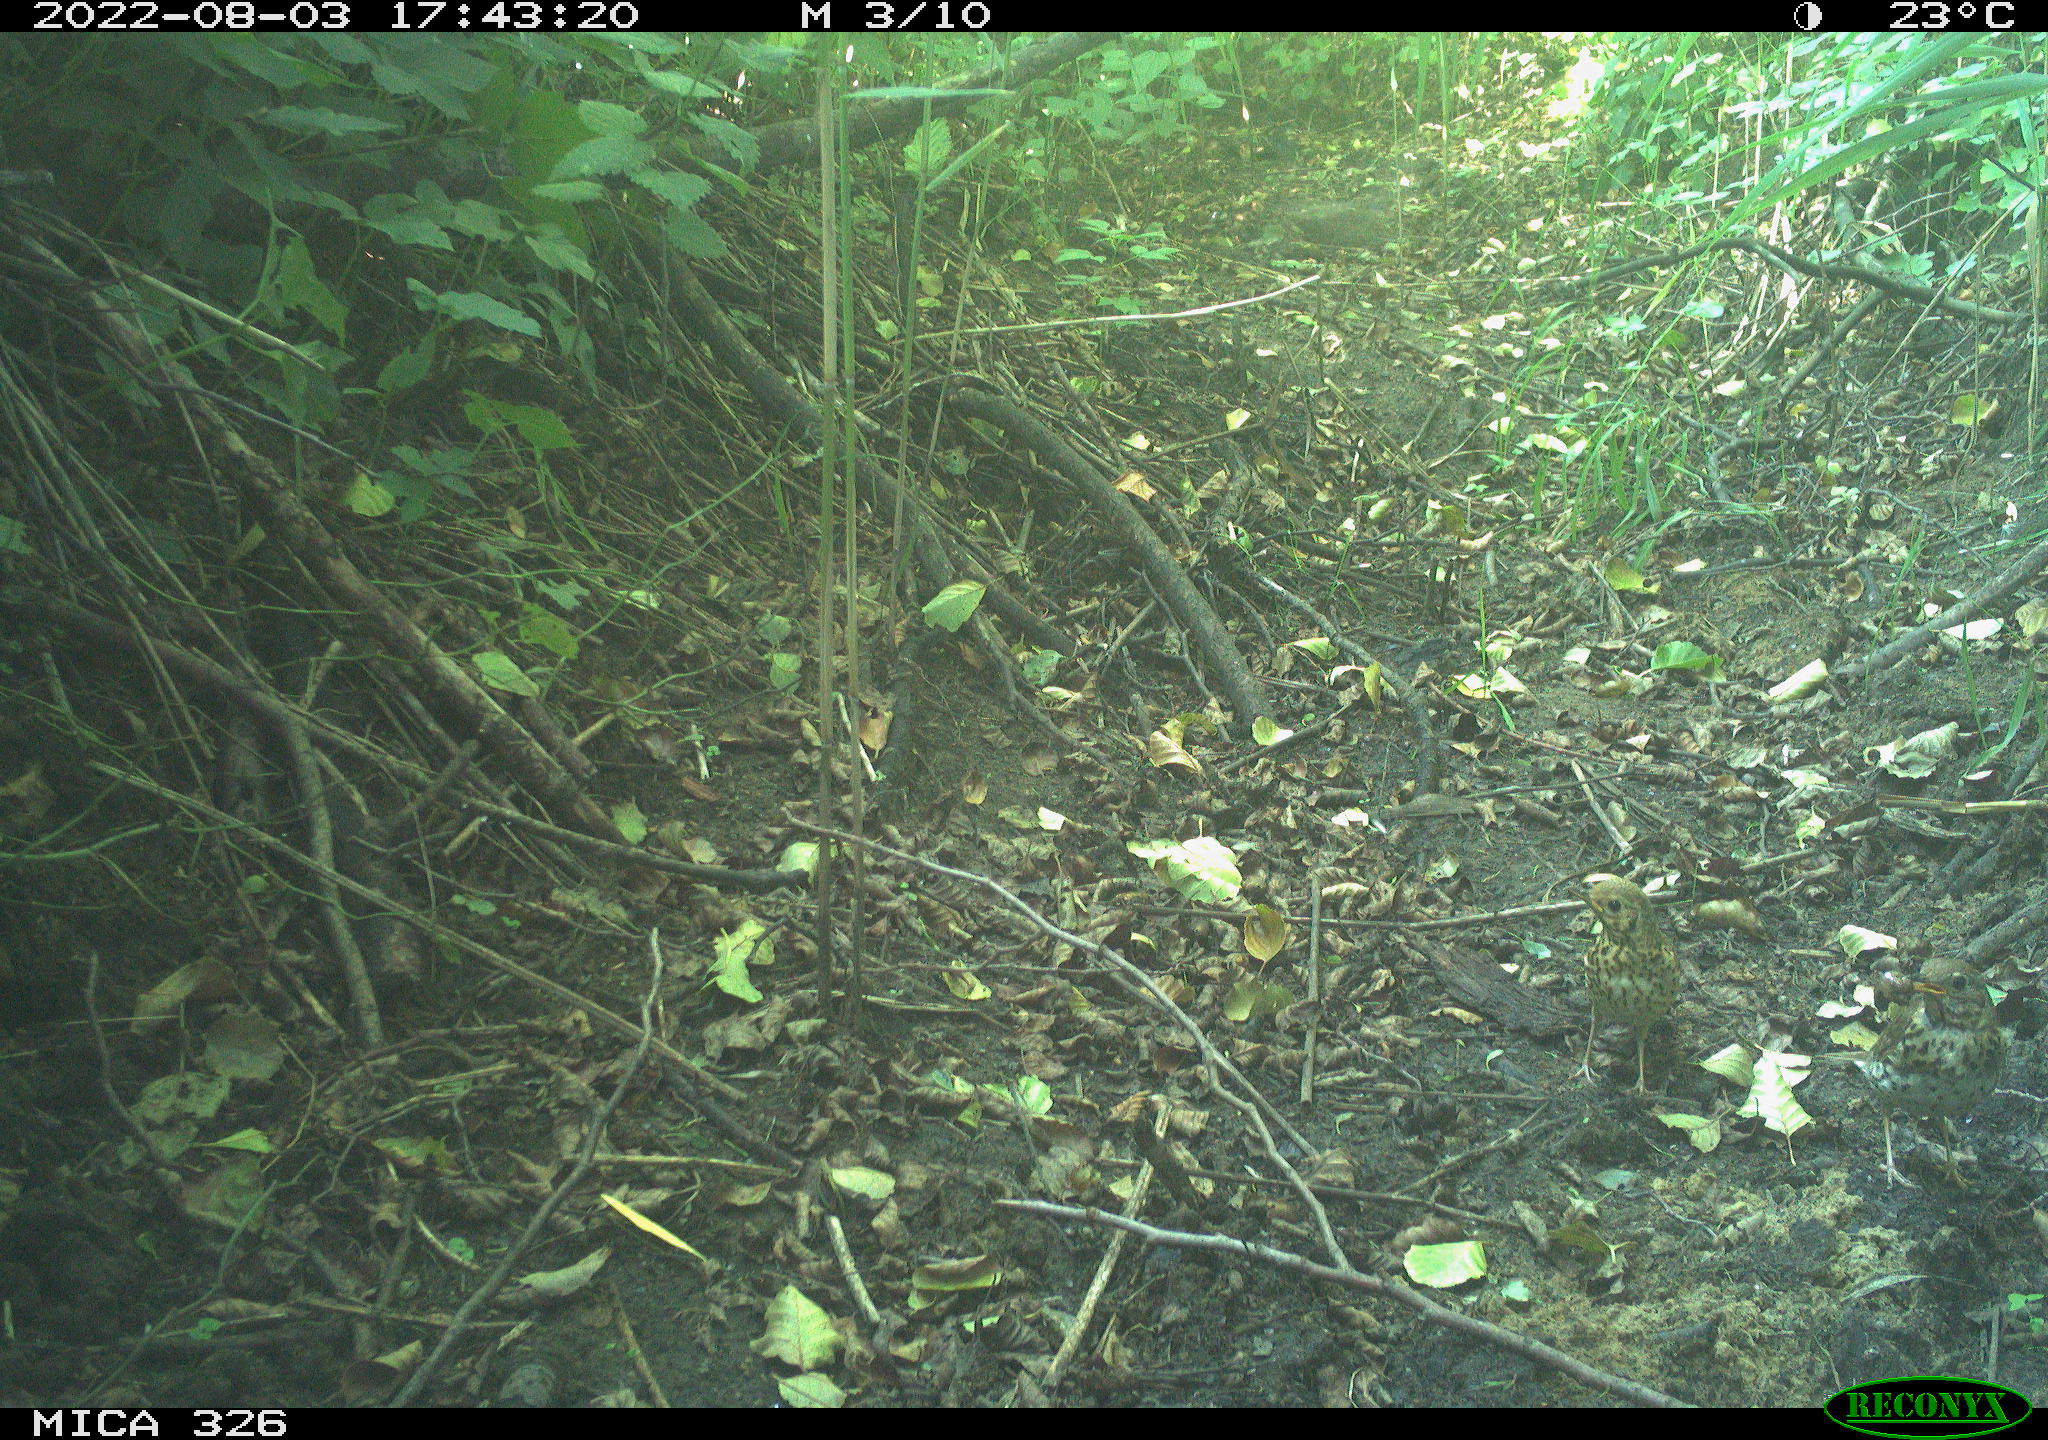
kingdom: Animalia
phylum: Chordata
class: Aves
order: Passeriformes
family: Turdidae
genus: Turdus
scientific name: Turdus philomelos
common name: Song thrush
